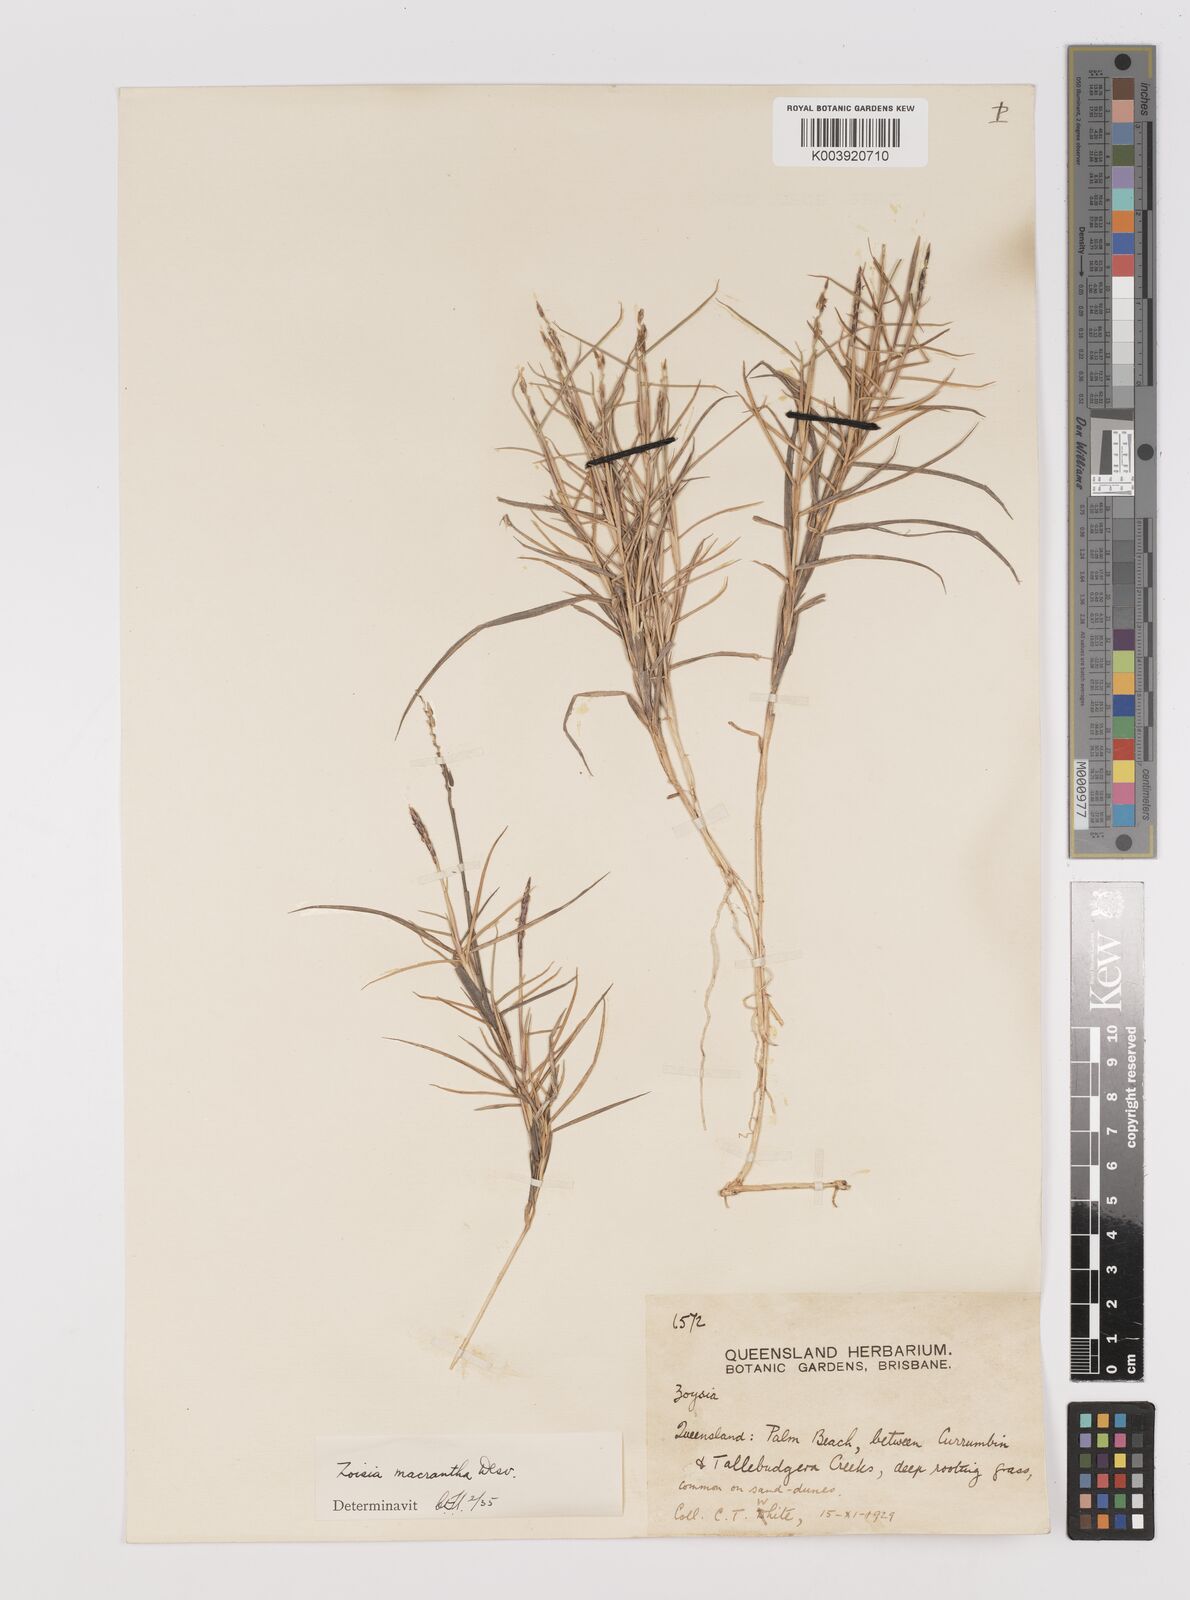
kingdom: Plantae
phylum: Tracheophyta
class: Liliopsida
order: Poales
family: Poaceae
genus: Zoysia
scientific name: Zoysia macrantha
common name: Korean lawn grass
